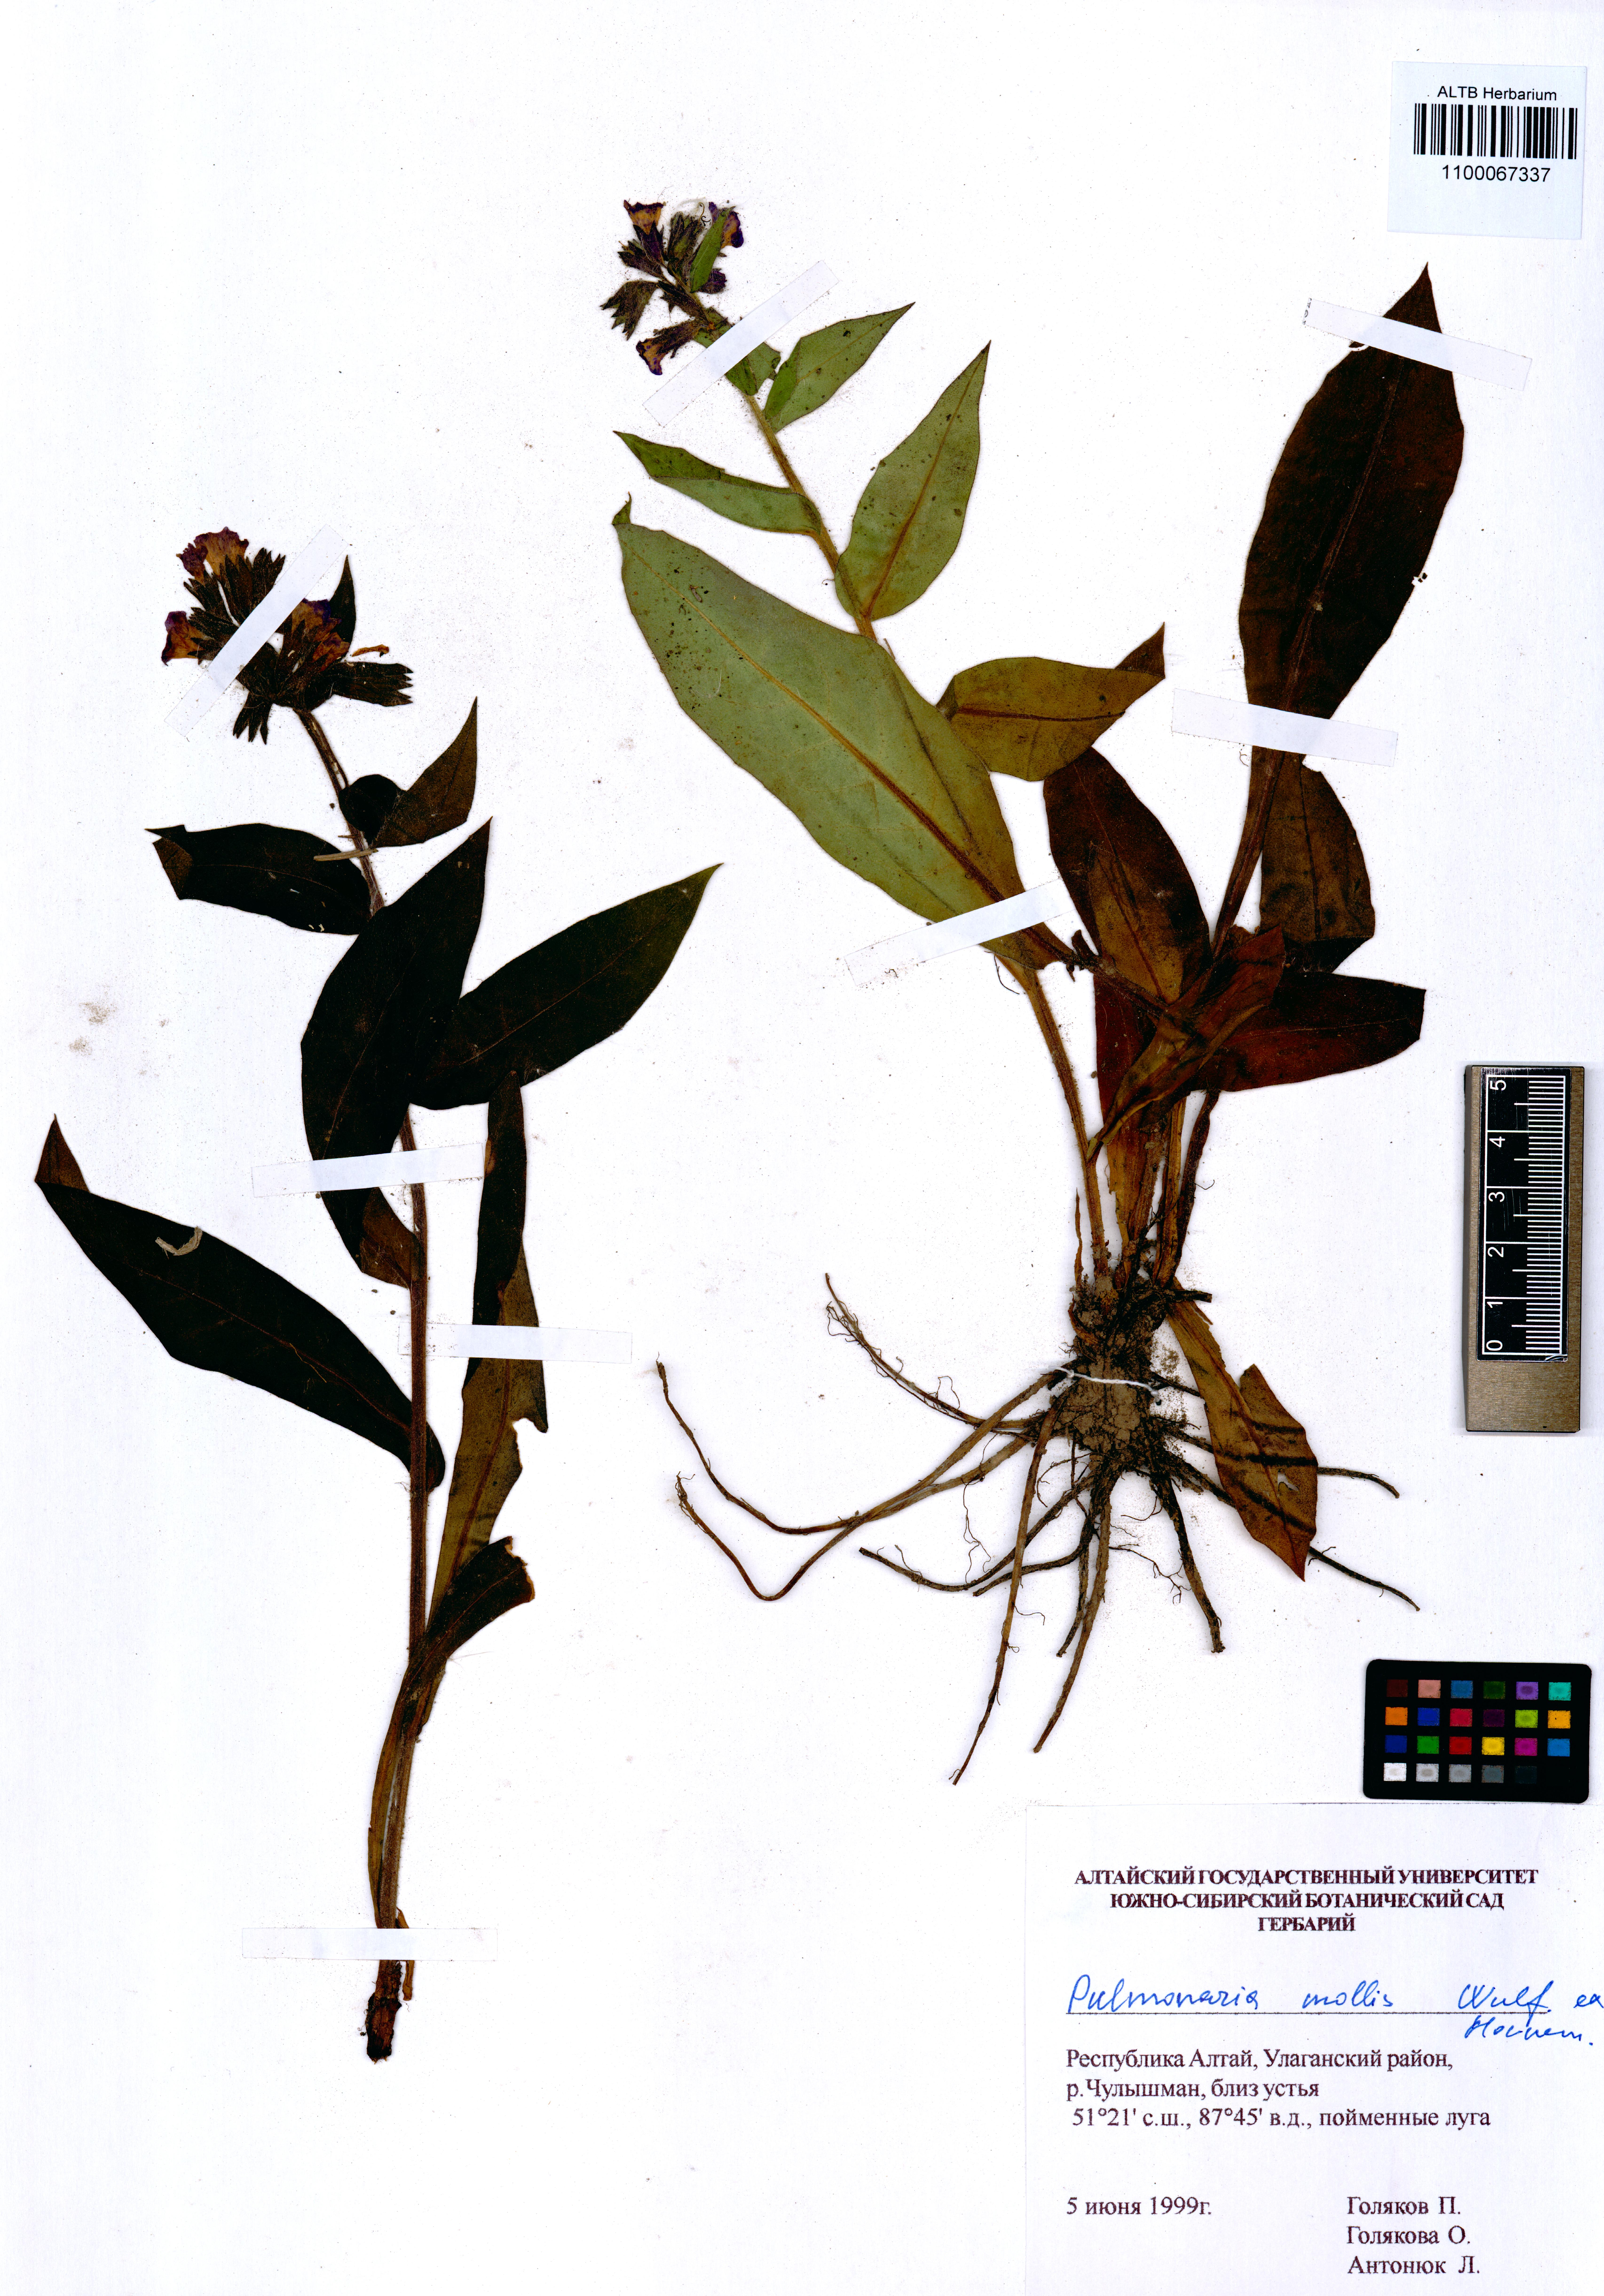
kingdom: Plantae
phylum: Tracheophyta
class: Magnoliopsida
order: Boraginales
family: Boraginaceae
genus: Pulmonaria
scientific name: Pulmonaria mollis
